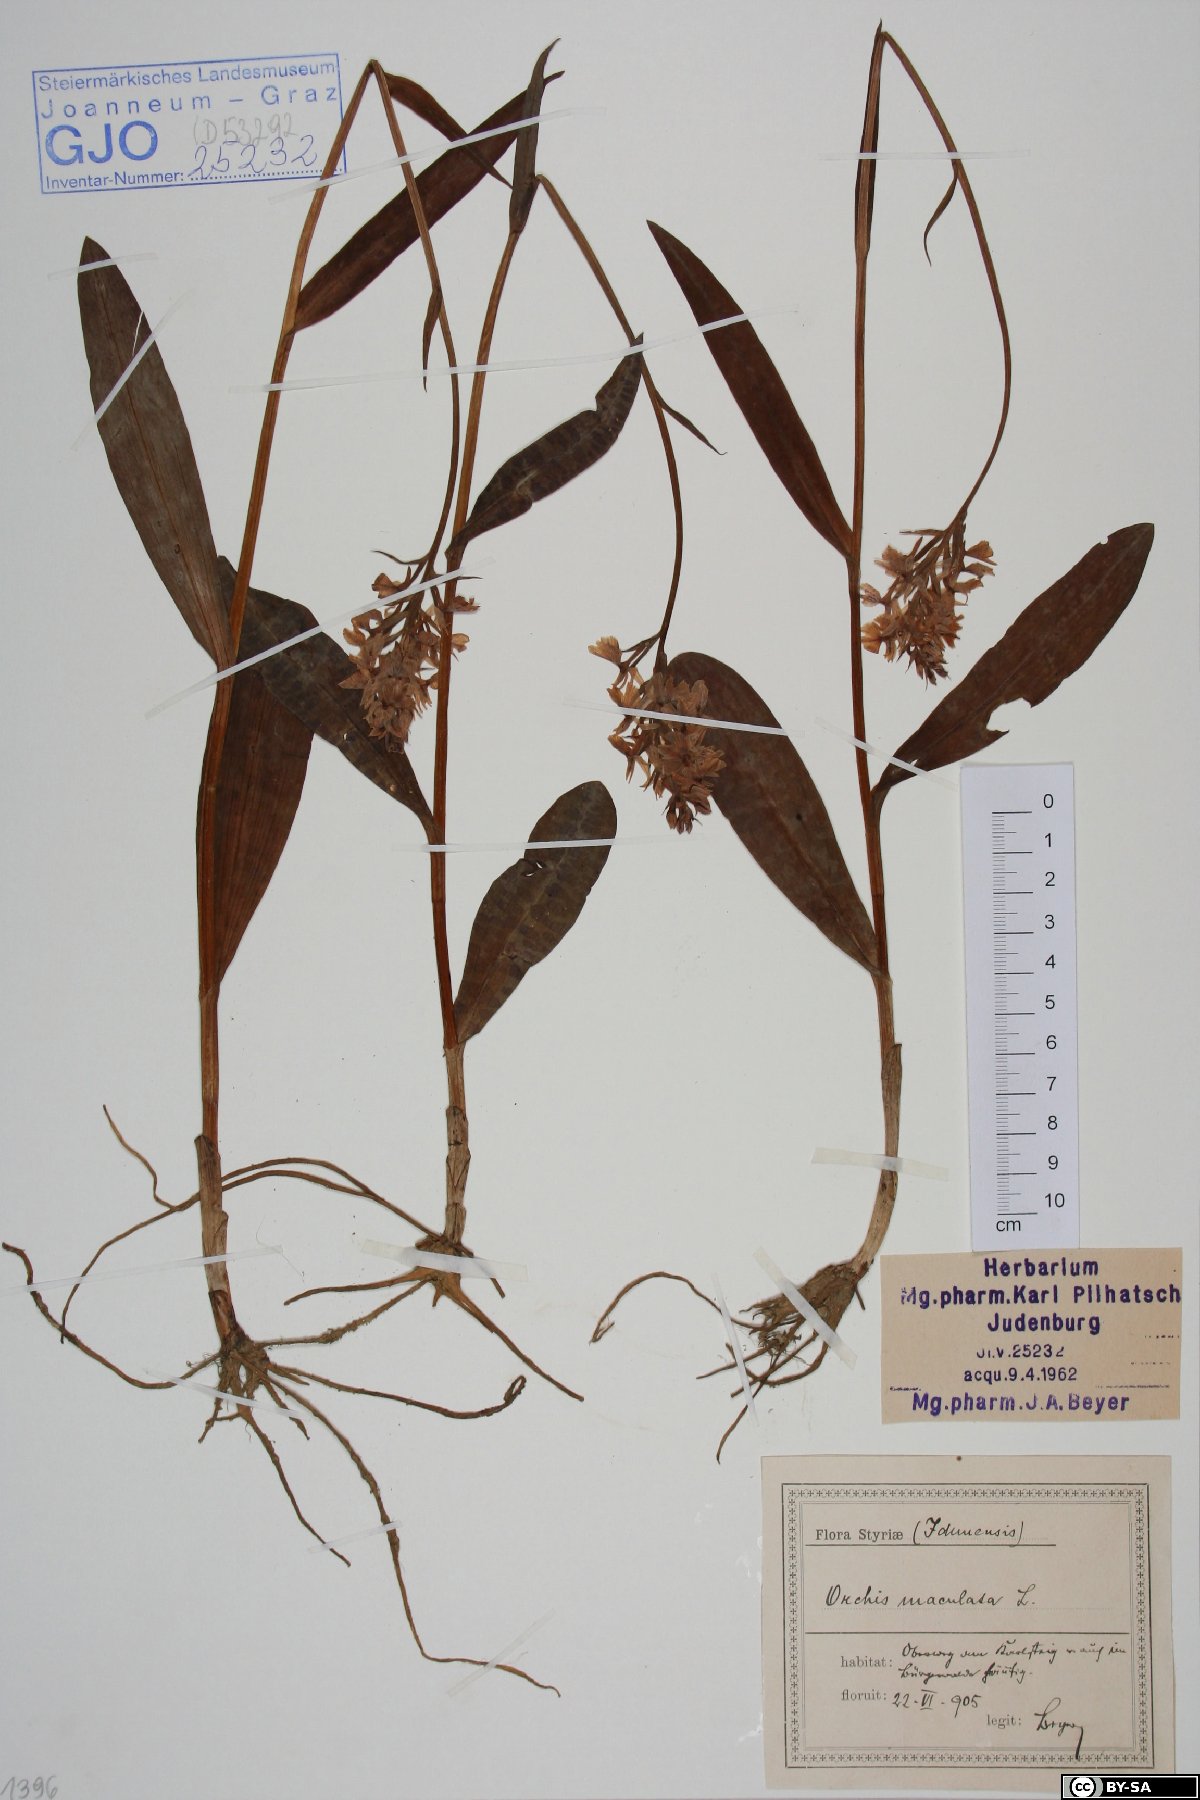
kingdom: Plantae
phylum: Tracheophyta
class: Liliopsida
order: Asparagales
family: Orchidaceae
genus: Dactylorhiza
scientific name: Dactylorhiza maculata
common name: Heath spotted-orchid
